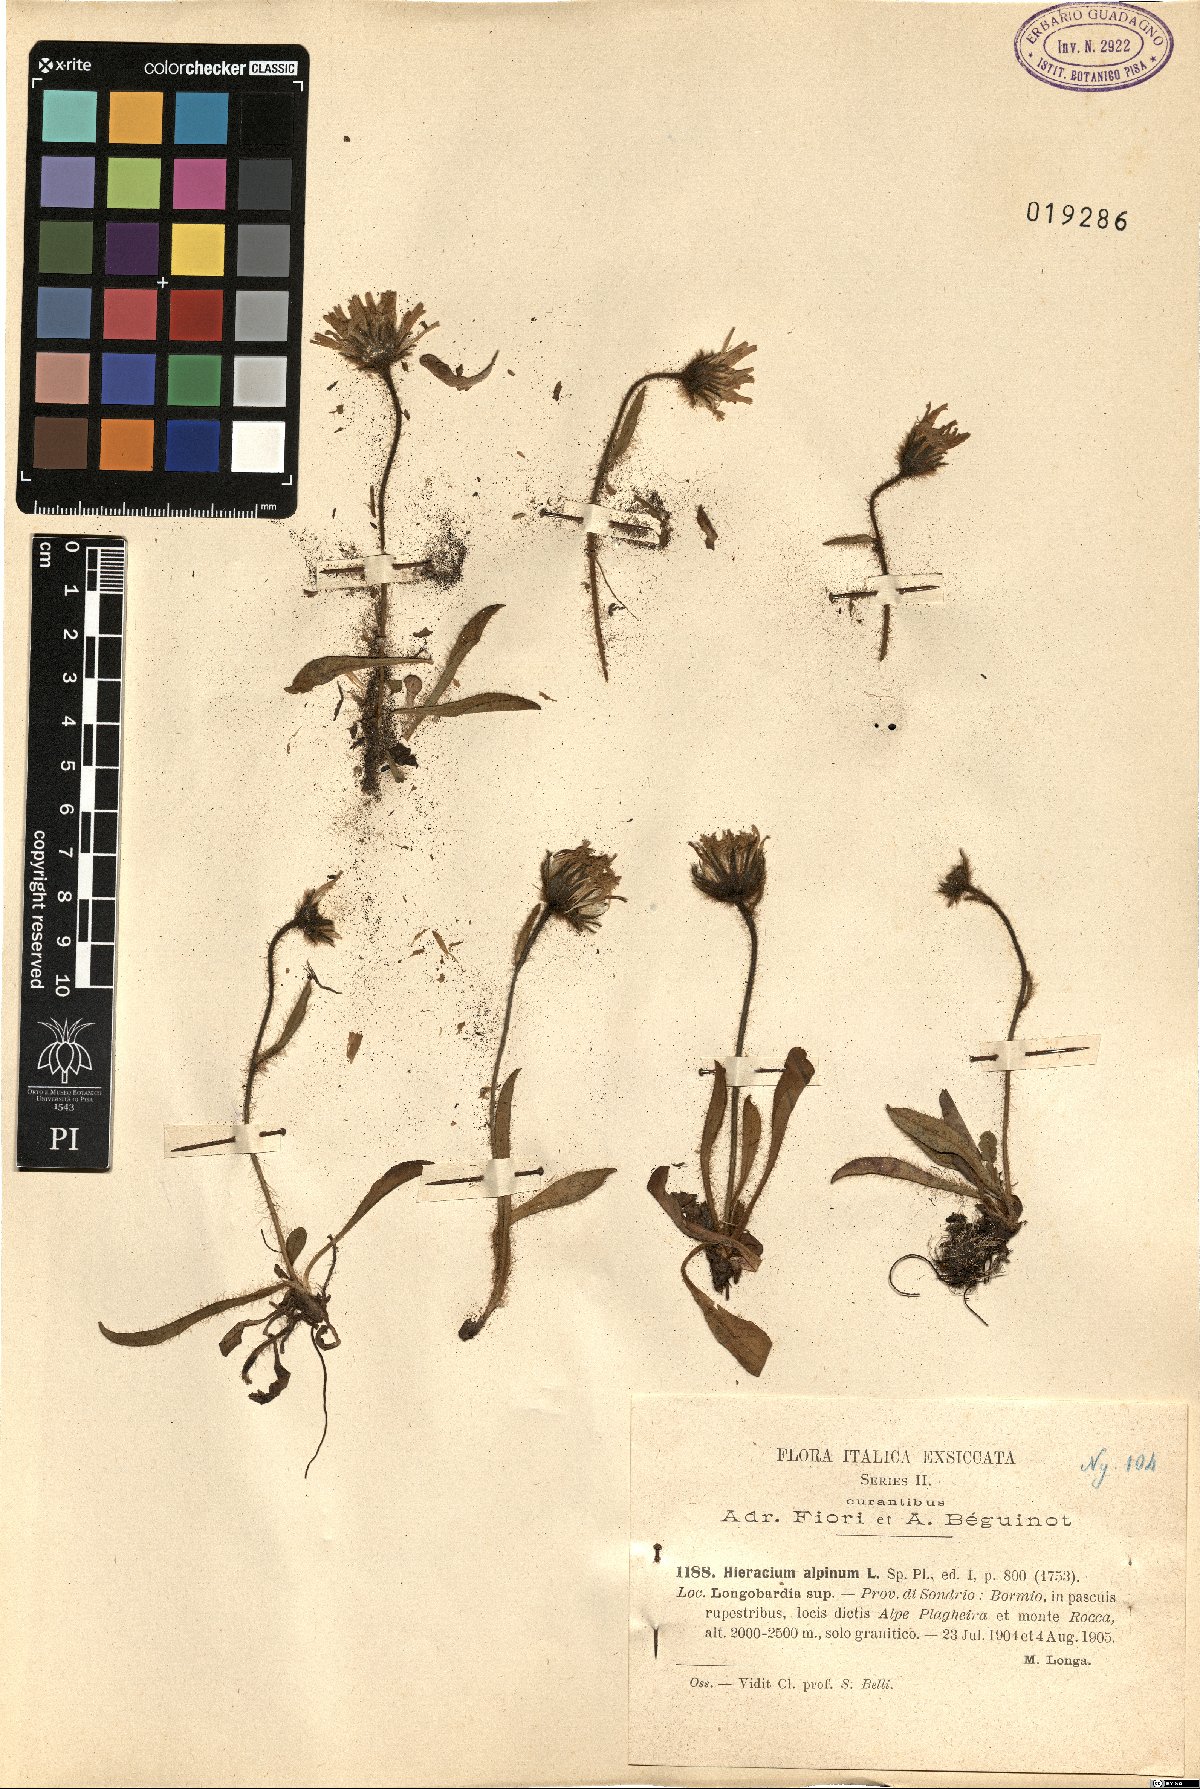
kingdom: Plantae
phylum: Tracheophyta
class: Magnoliopsida
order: Asterales
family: Asteraceae
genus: Hieracium
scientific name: Hieracium alpinum
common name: Alpine hawkweed
